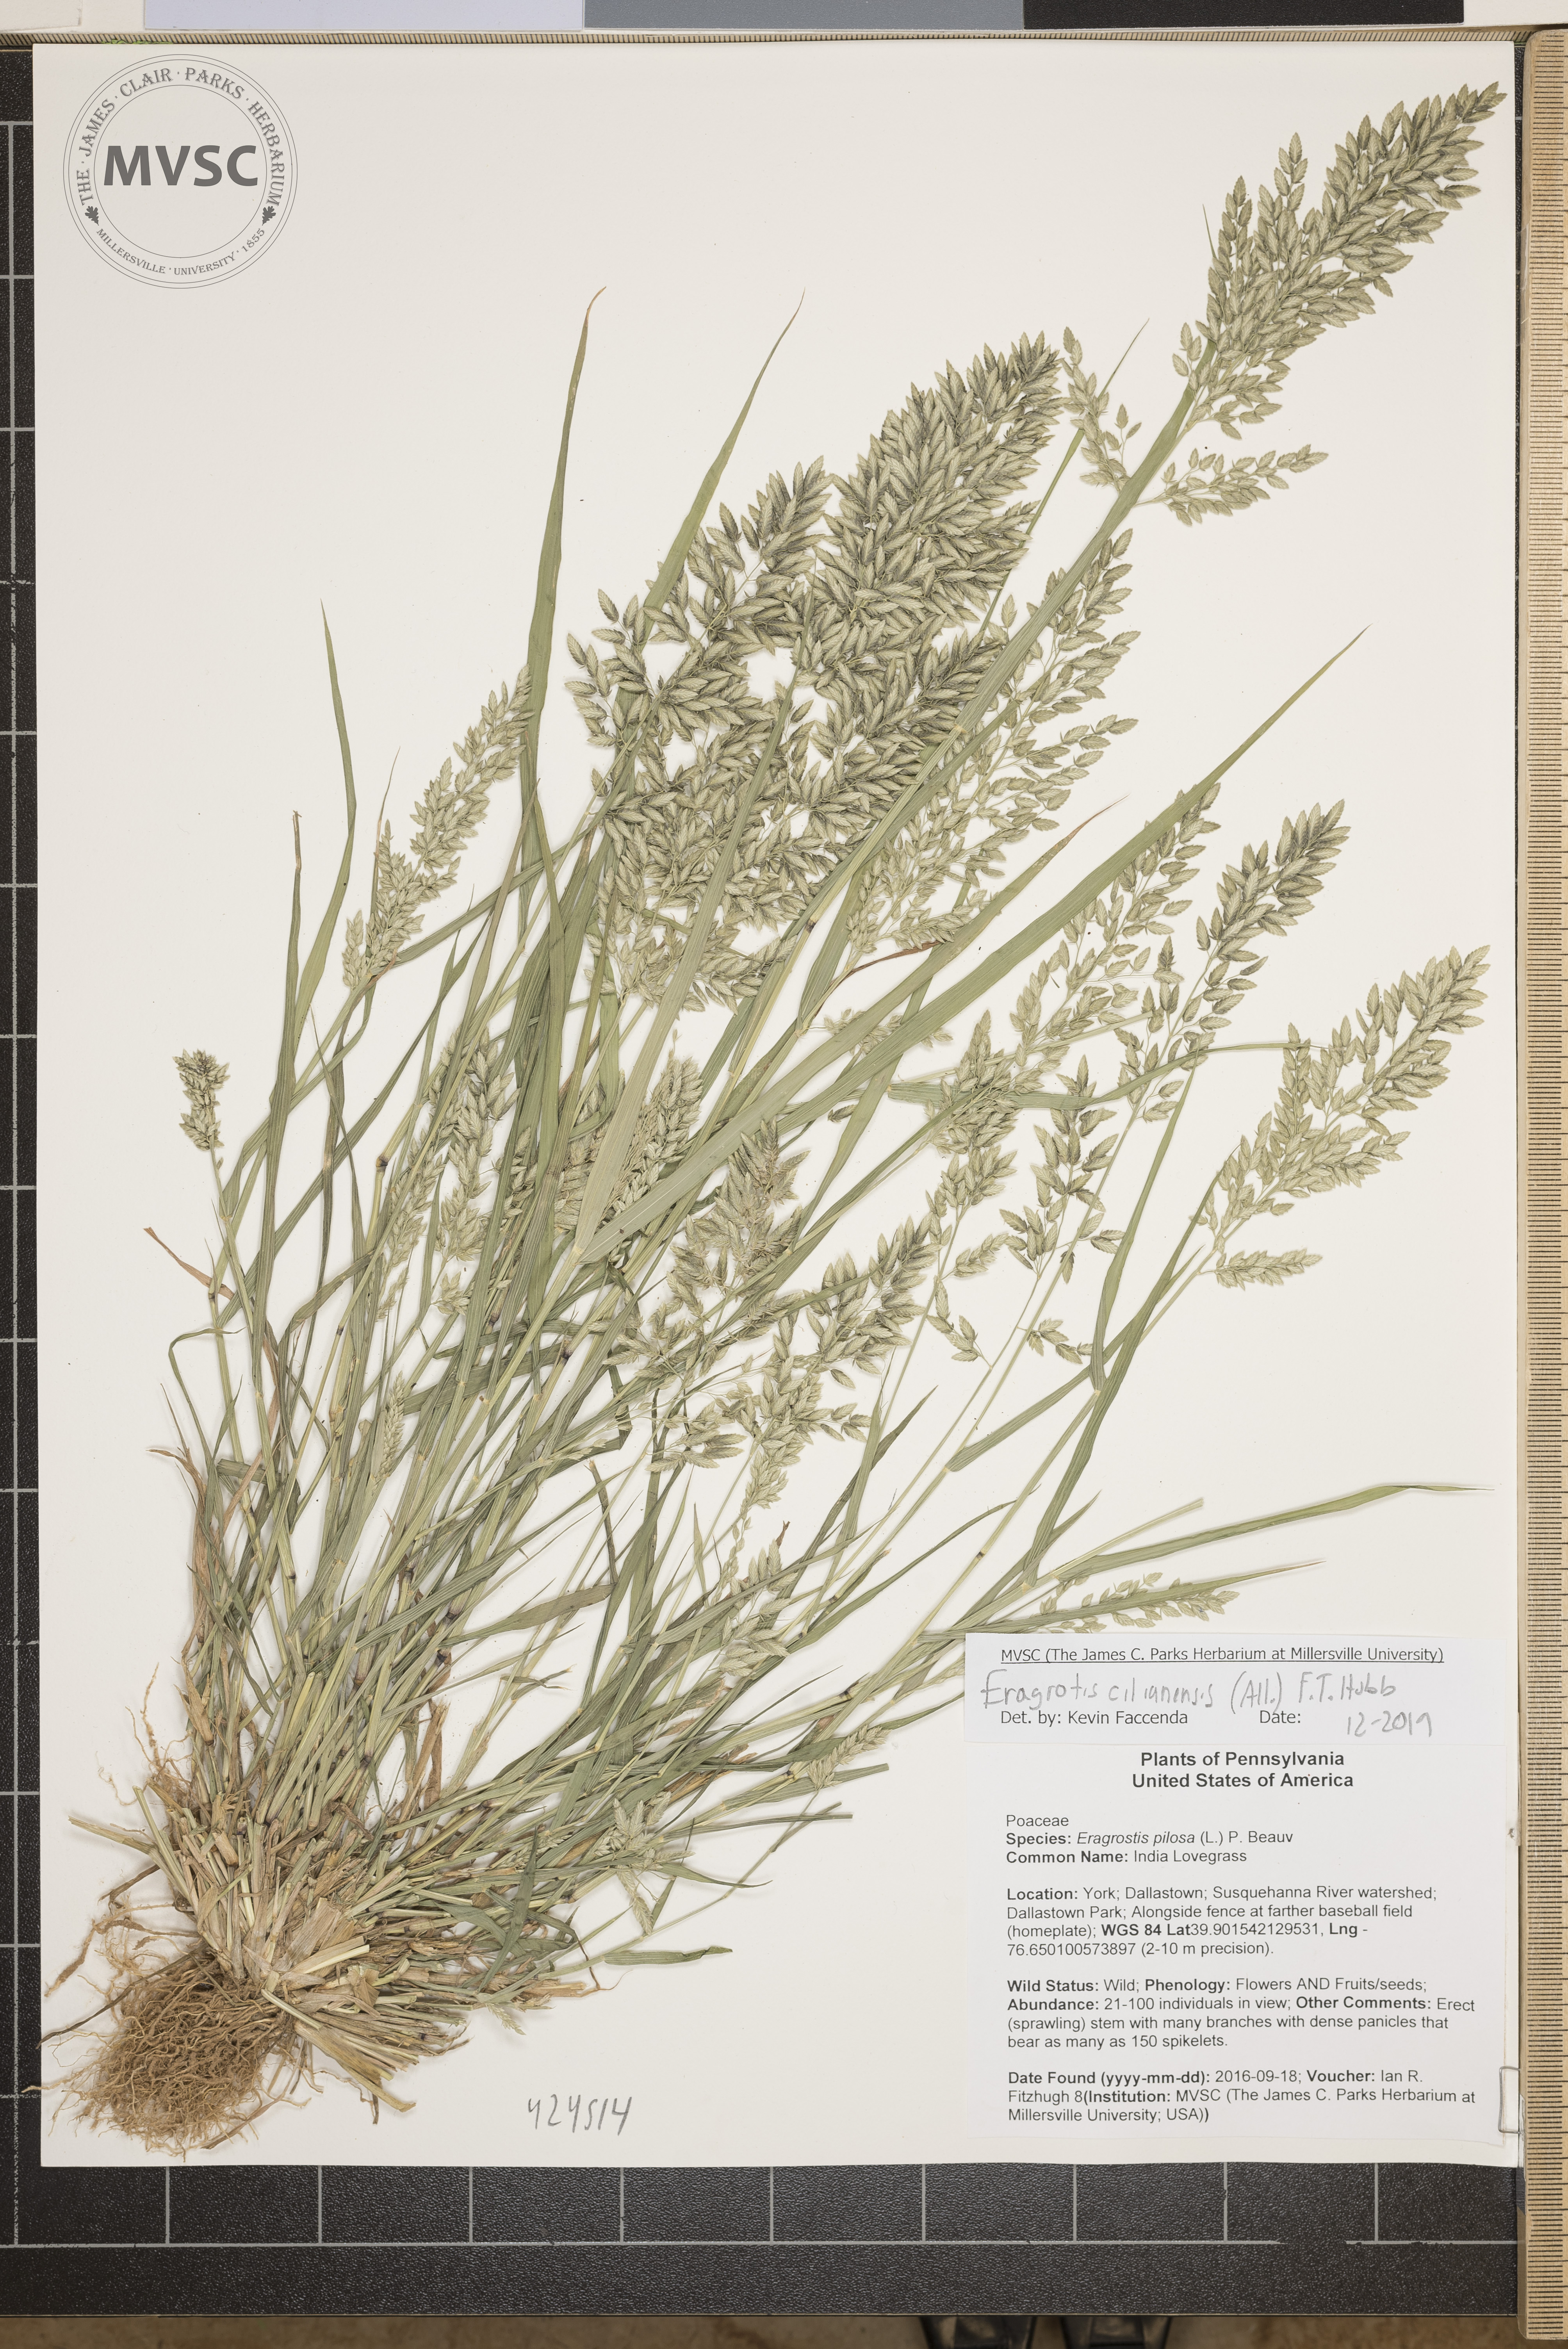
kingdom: Plantae
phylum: Tracheophyta
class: Liliopsida
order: Poales
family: Poaceae
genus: Eragrostis
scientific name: Eragrostis cilianensis
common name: India Lovegrass
